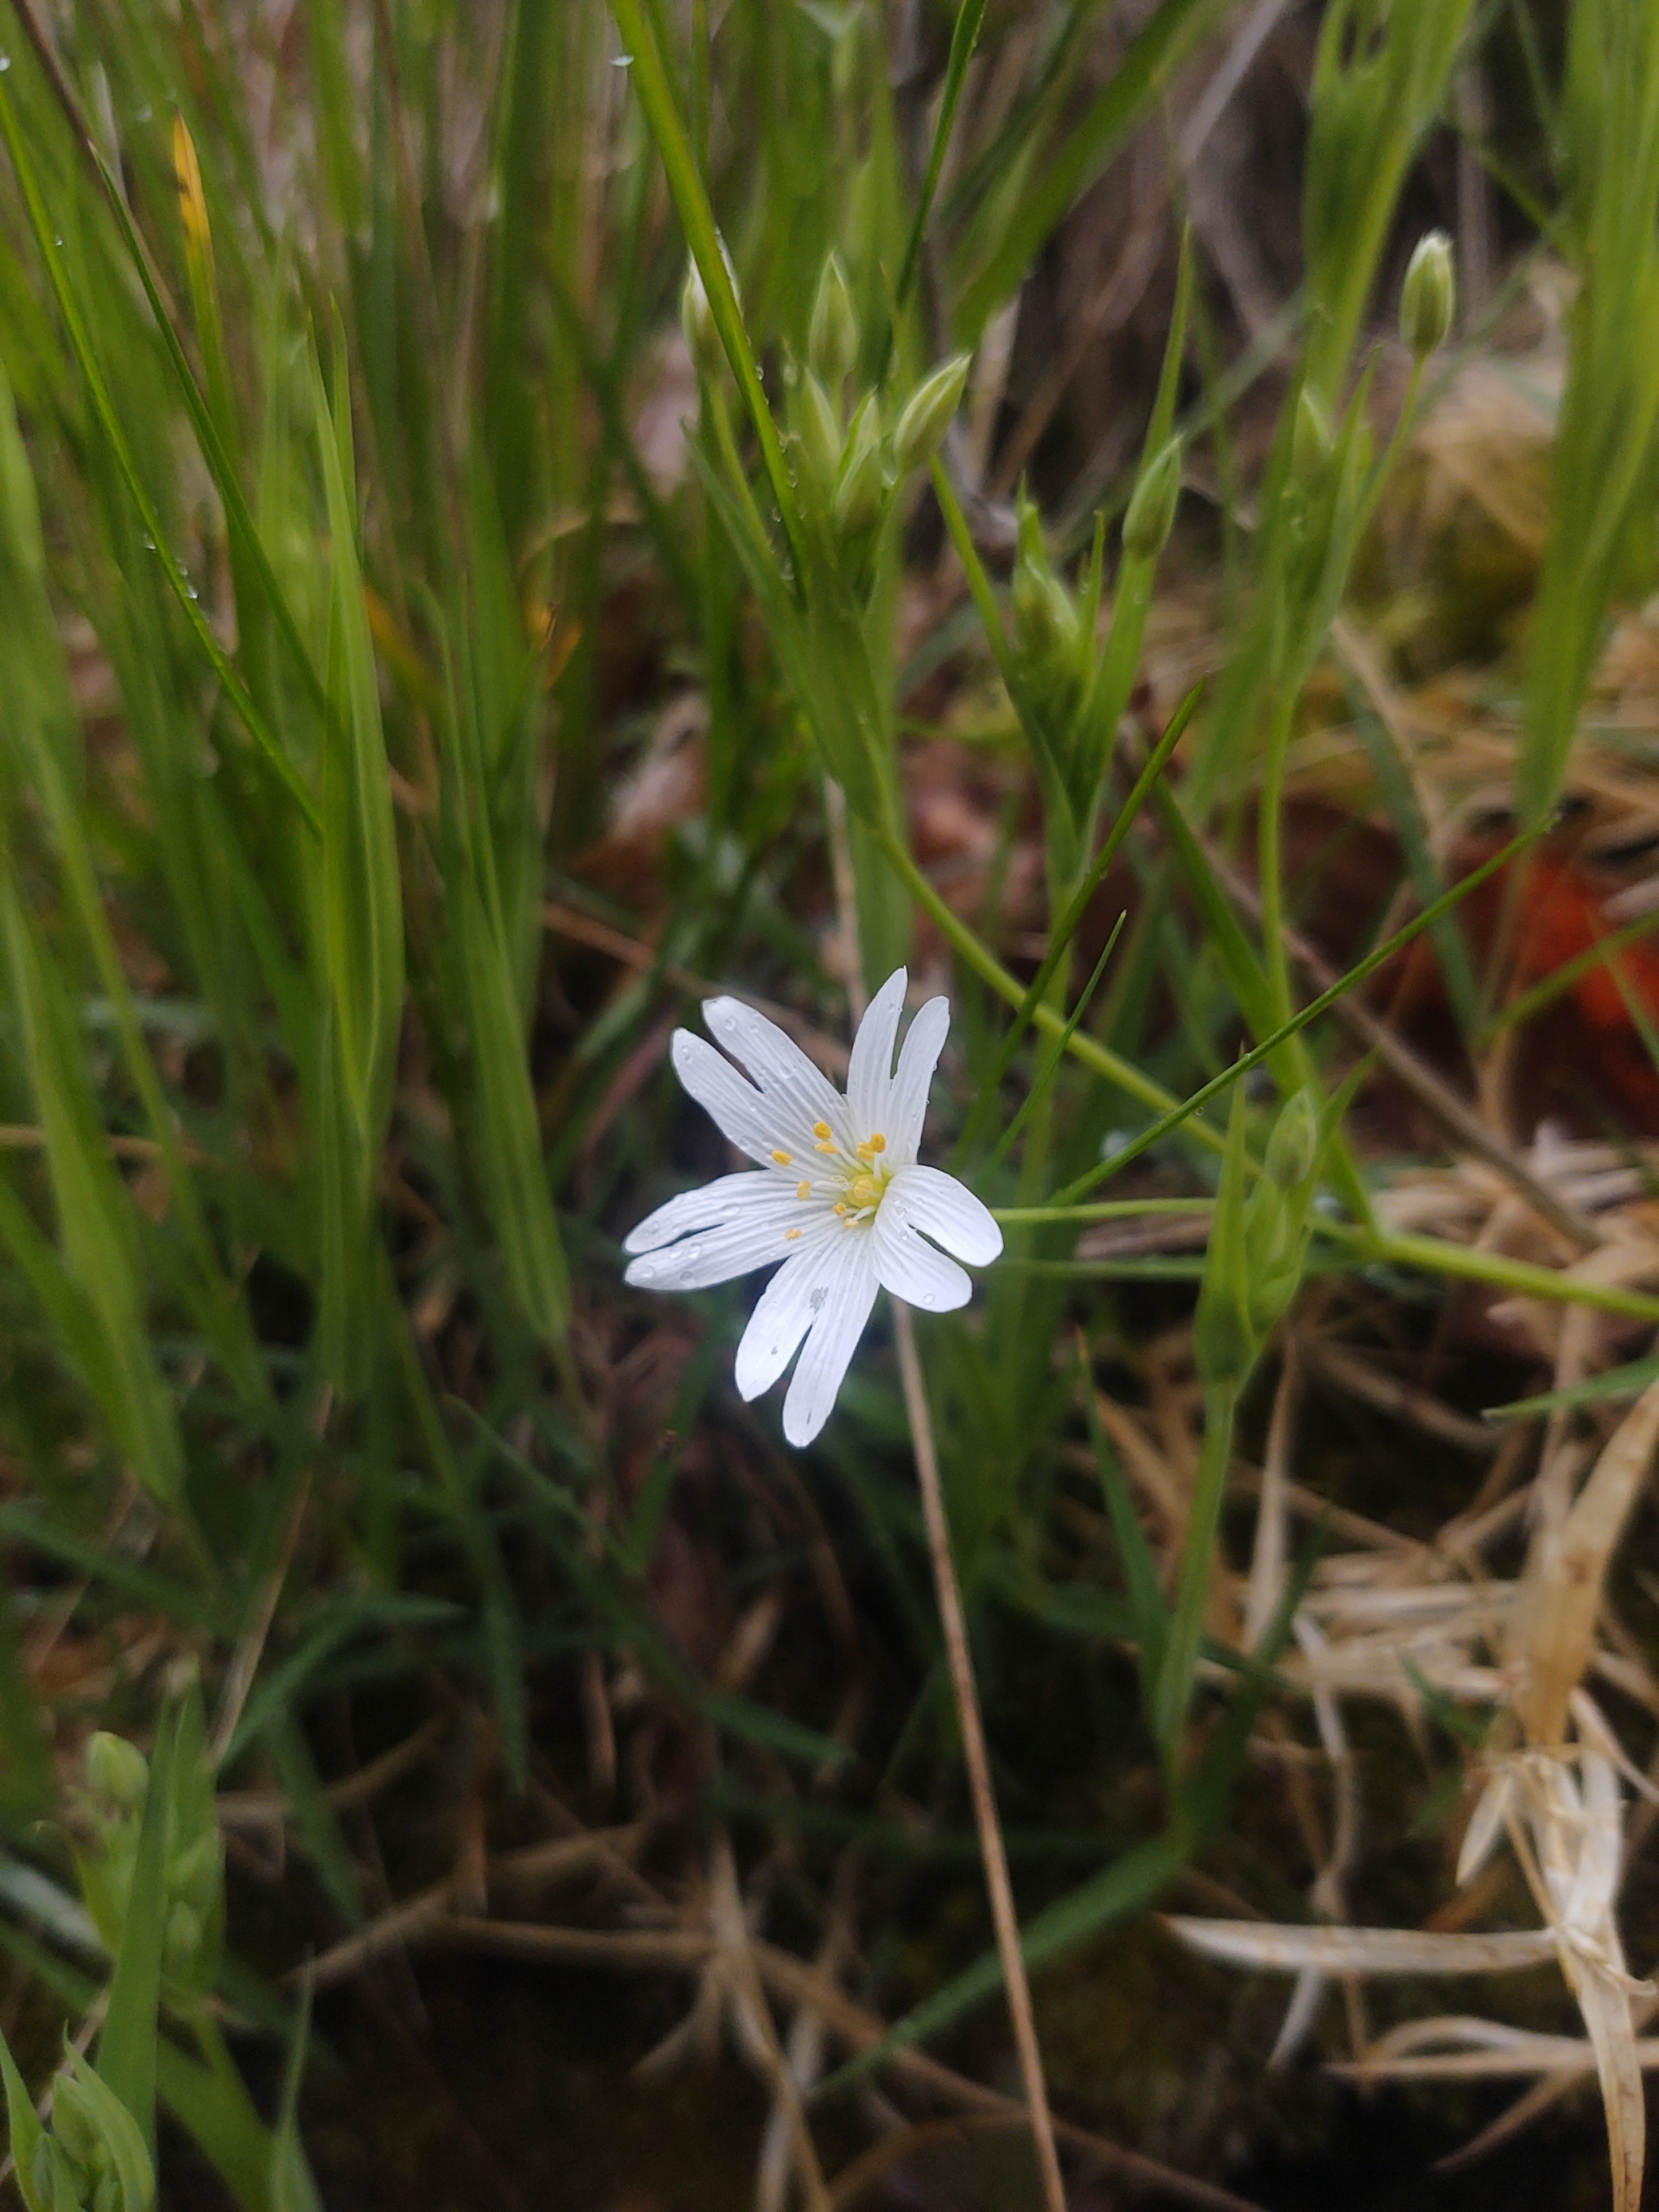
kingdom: Plantae
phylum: Tracheophyta
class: Magnoliopsida
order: Caryophyllales
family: Caryophyllaceae
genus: Rabelera
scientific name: Rabelera holostea
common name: Stor fladstjerne
